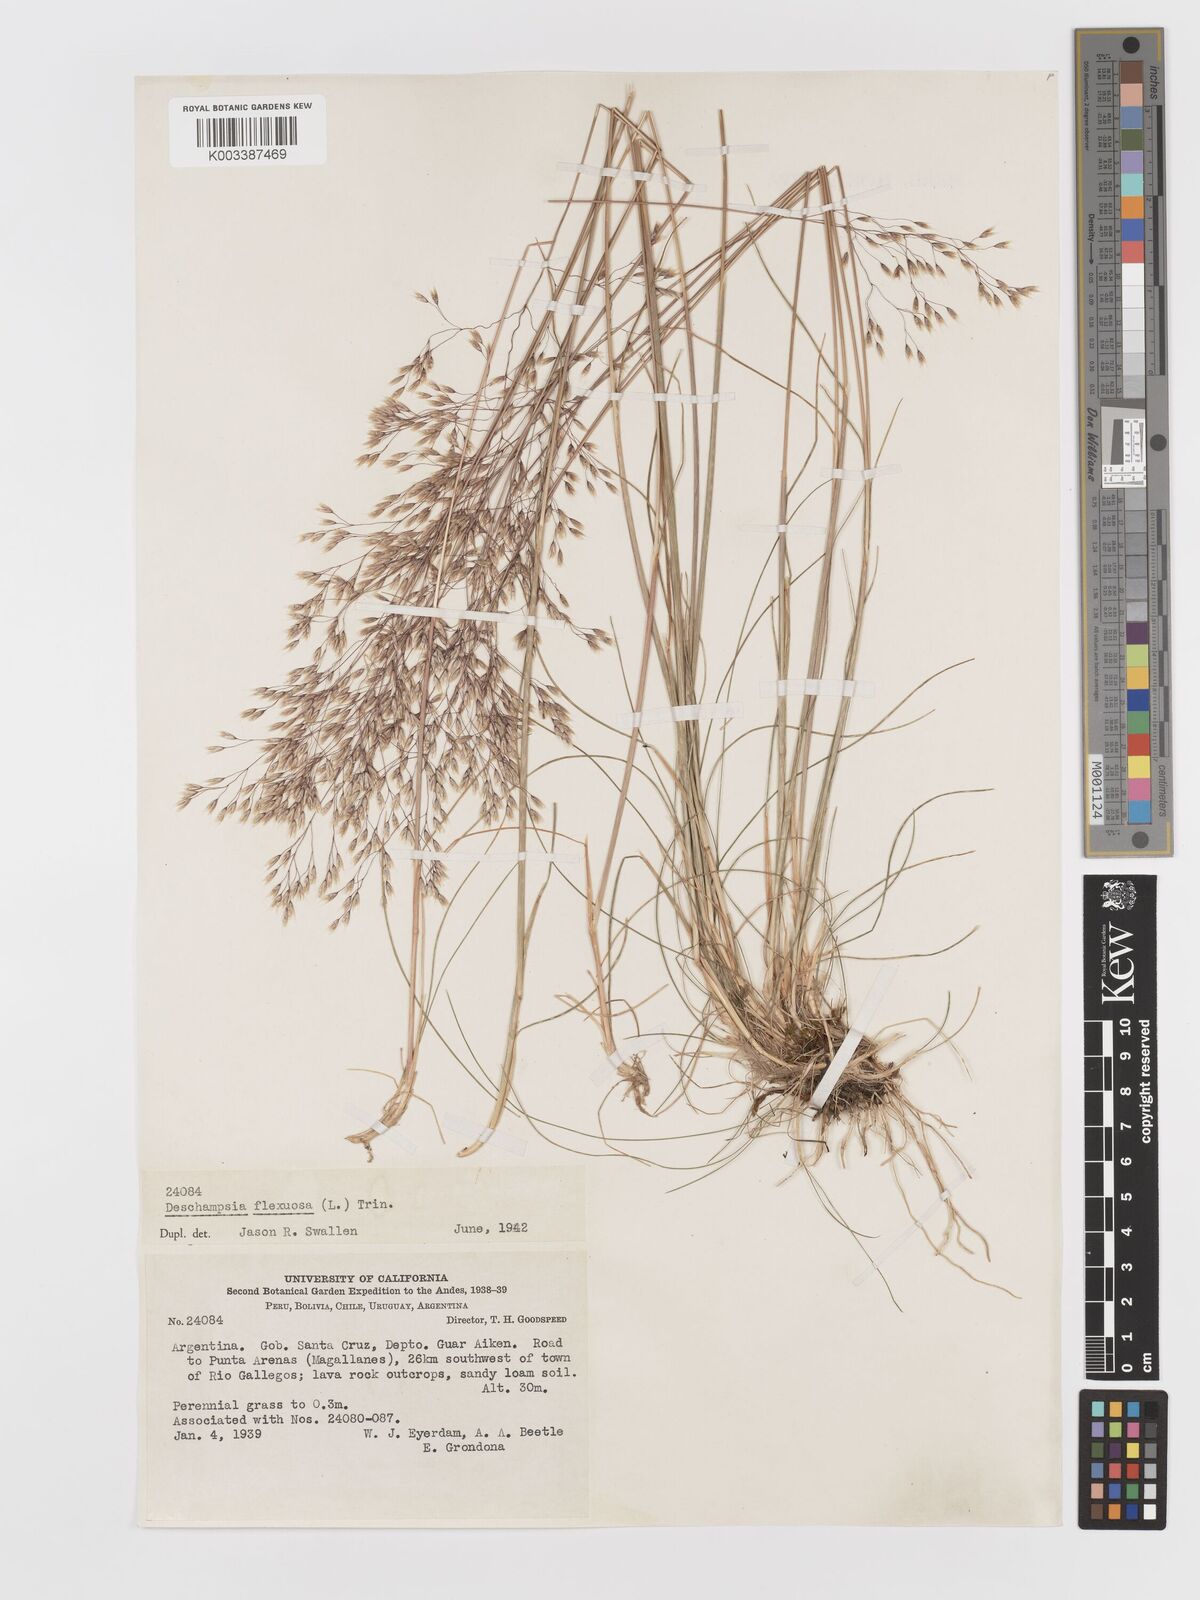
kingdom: Plantae
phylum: Tracheophyta
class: Liliopsida
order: Poales
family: Poaceae
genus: Avenella
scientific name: Avenella flexuosa
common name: Wavy hairgrass
